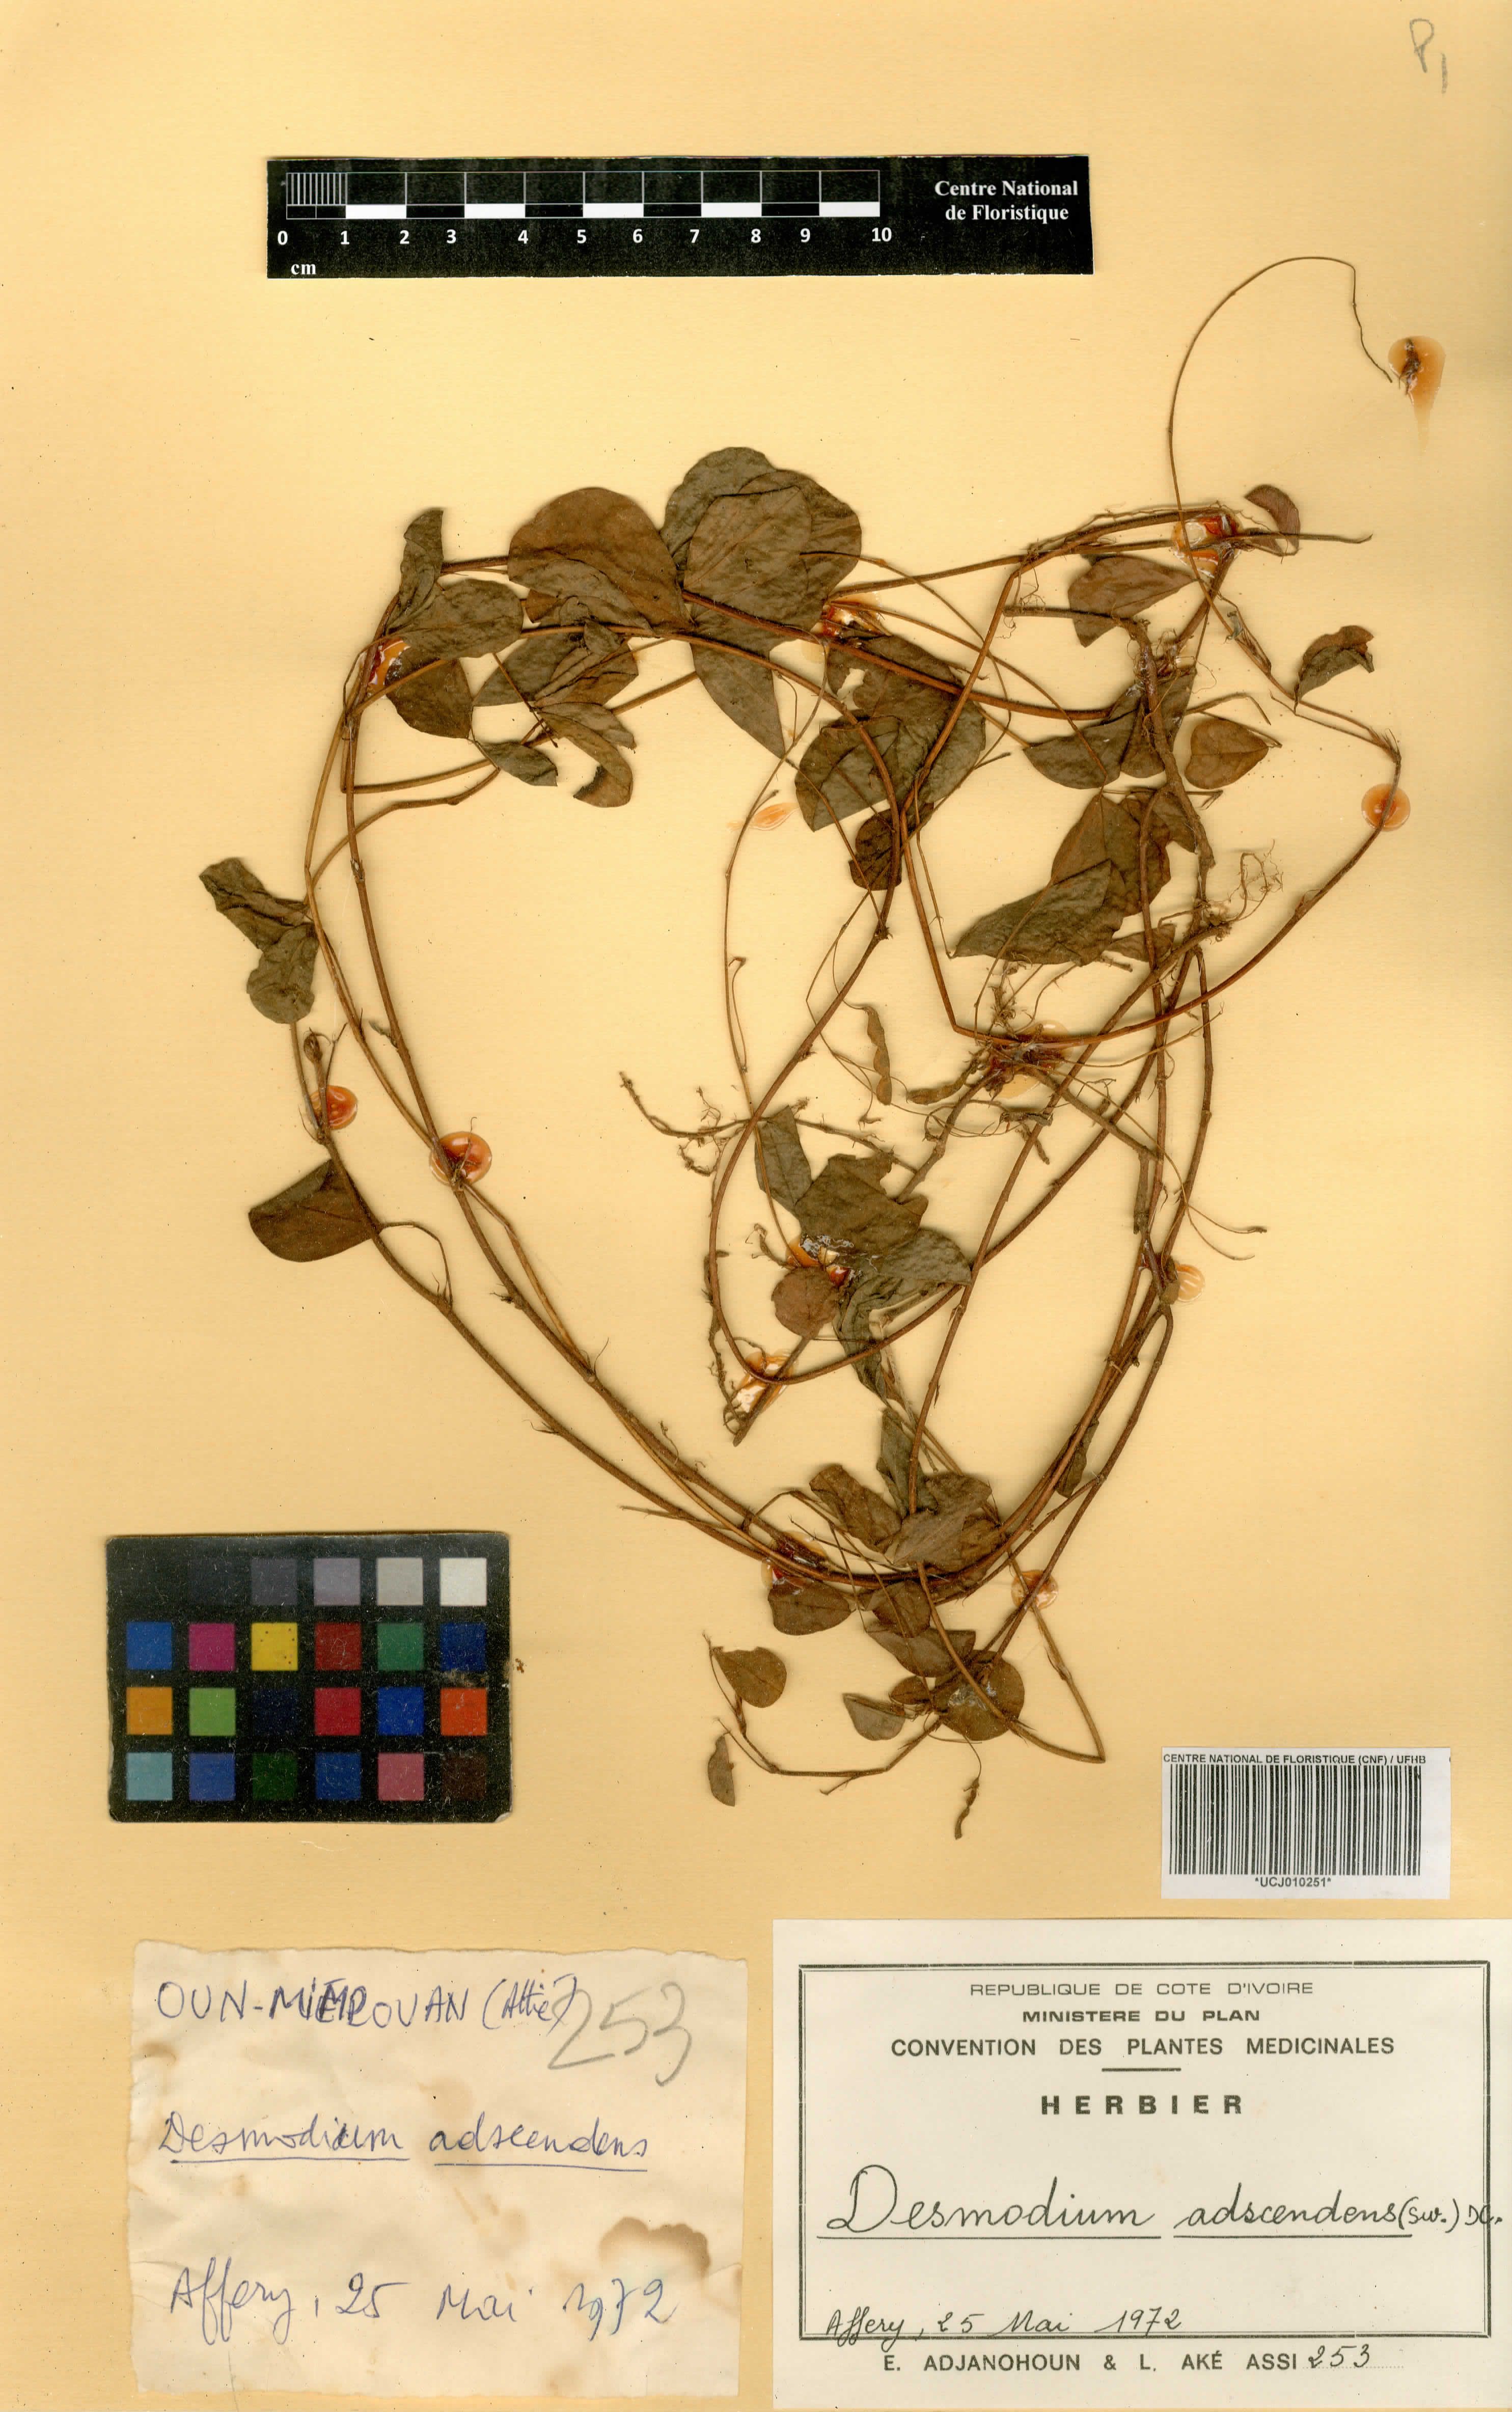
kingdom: Plantae
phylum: Tracheophyta
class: Magnoliopsida
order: Fabales
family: Fabaceae
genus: Grona
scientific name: Grona adscendens
